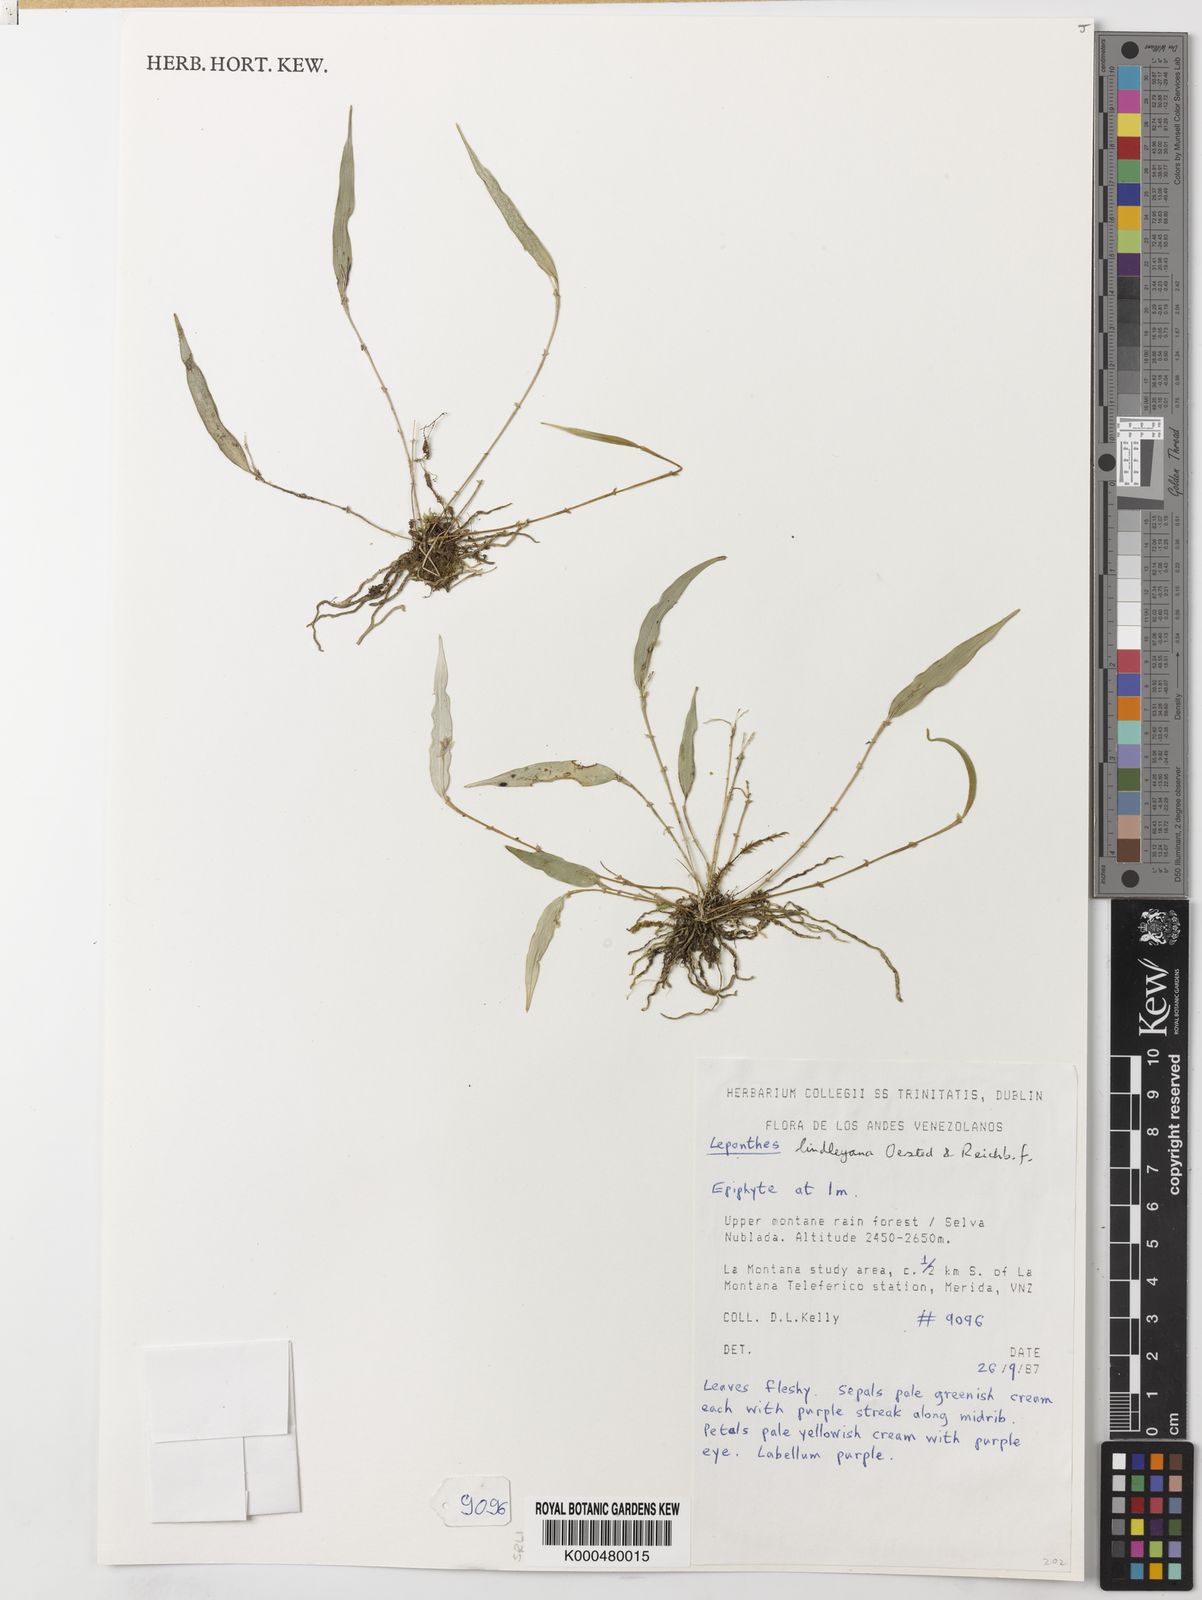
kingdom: Plantae
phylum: Tracheophyta
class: Liliopsida
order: Asparagales
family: Orchidaceae
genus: Lepanthes
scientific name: Lepanthes lindleyana
